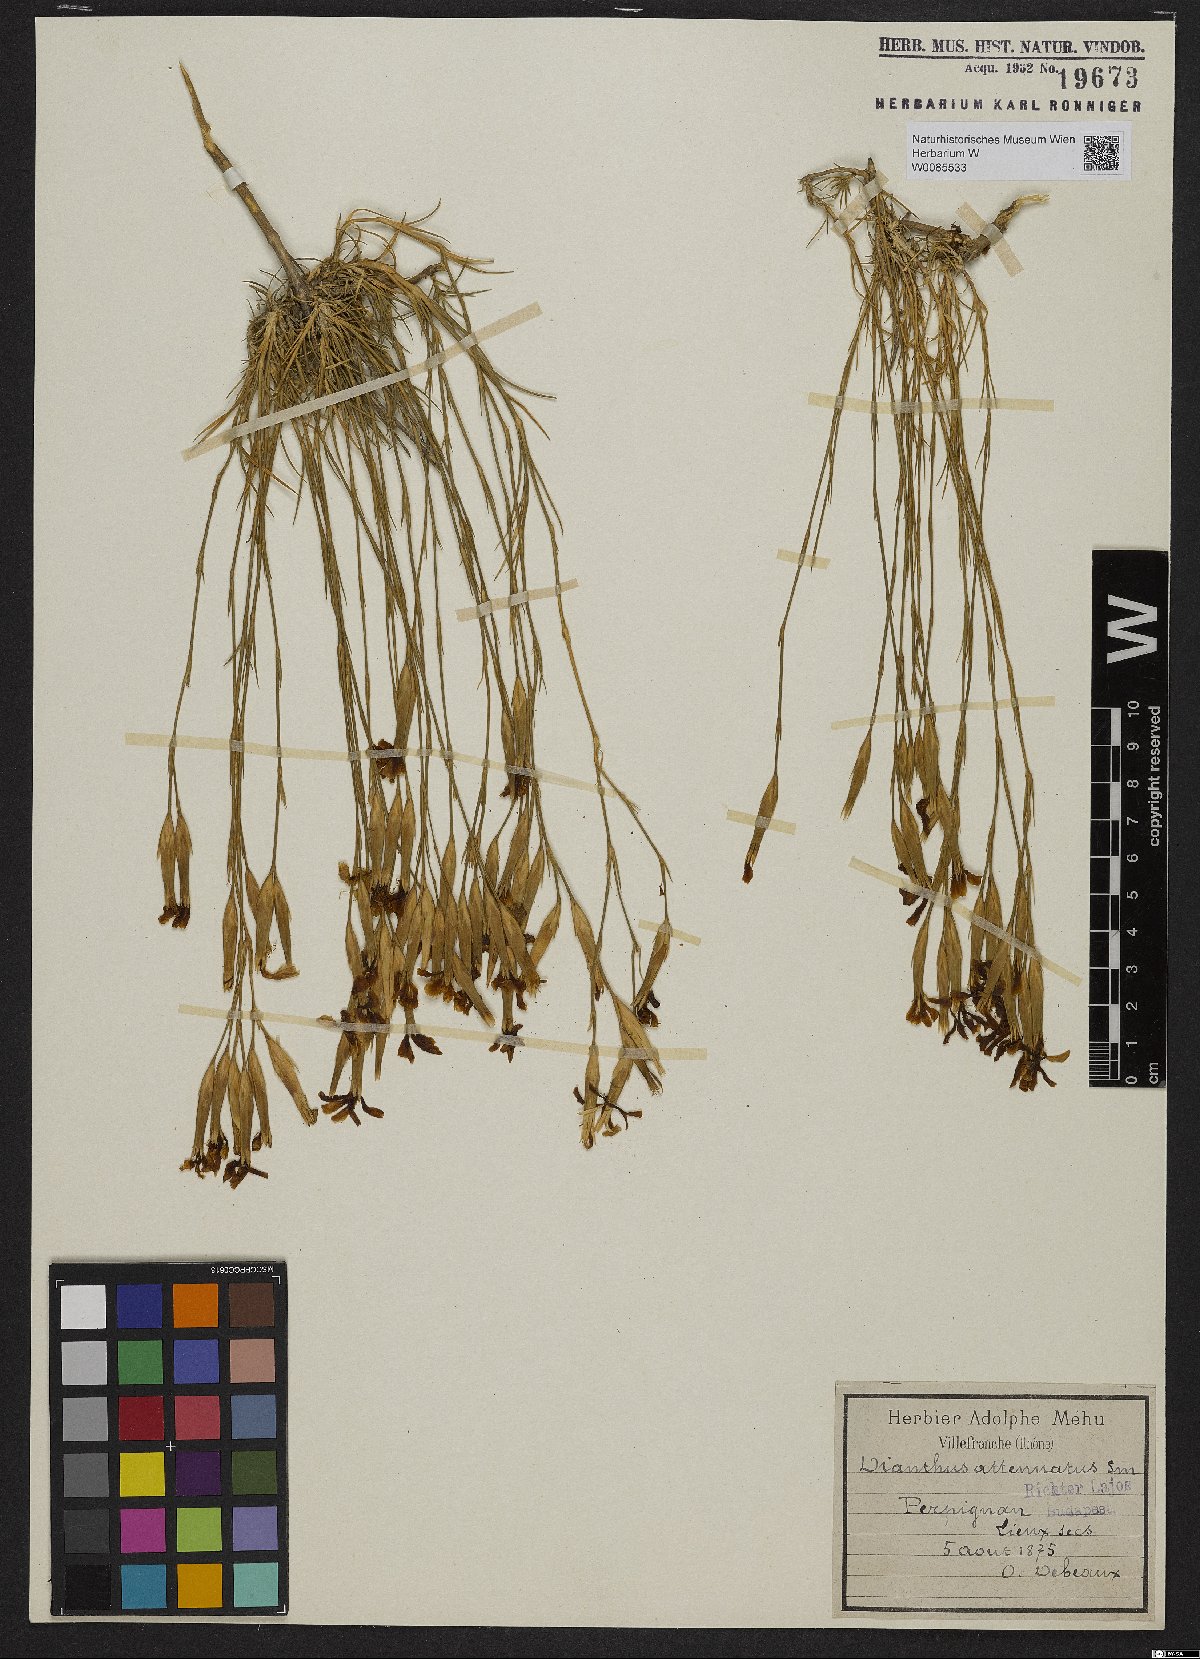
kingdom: Plantae
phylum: Tracheophyta
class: Magnoliopsida
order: Caryophyllales
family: Caryophyllaceae
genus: Dianthus
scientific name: Dianthus pyrenaicus
